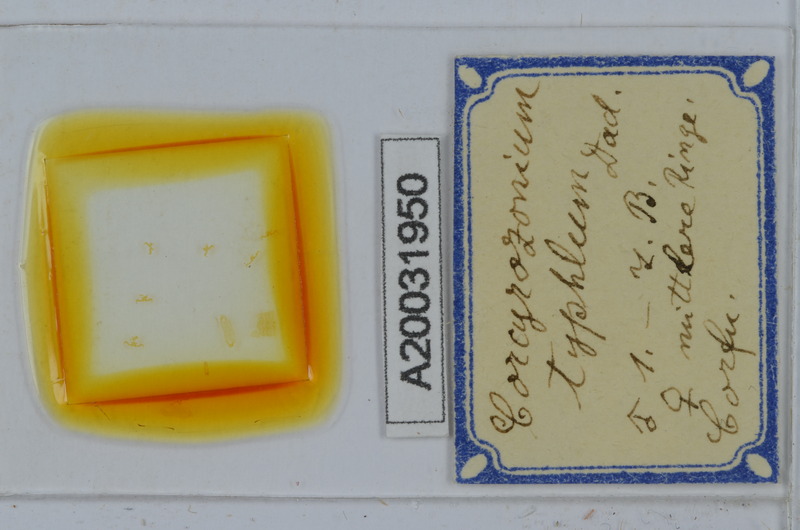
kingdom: Animalia
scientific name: Animalia
